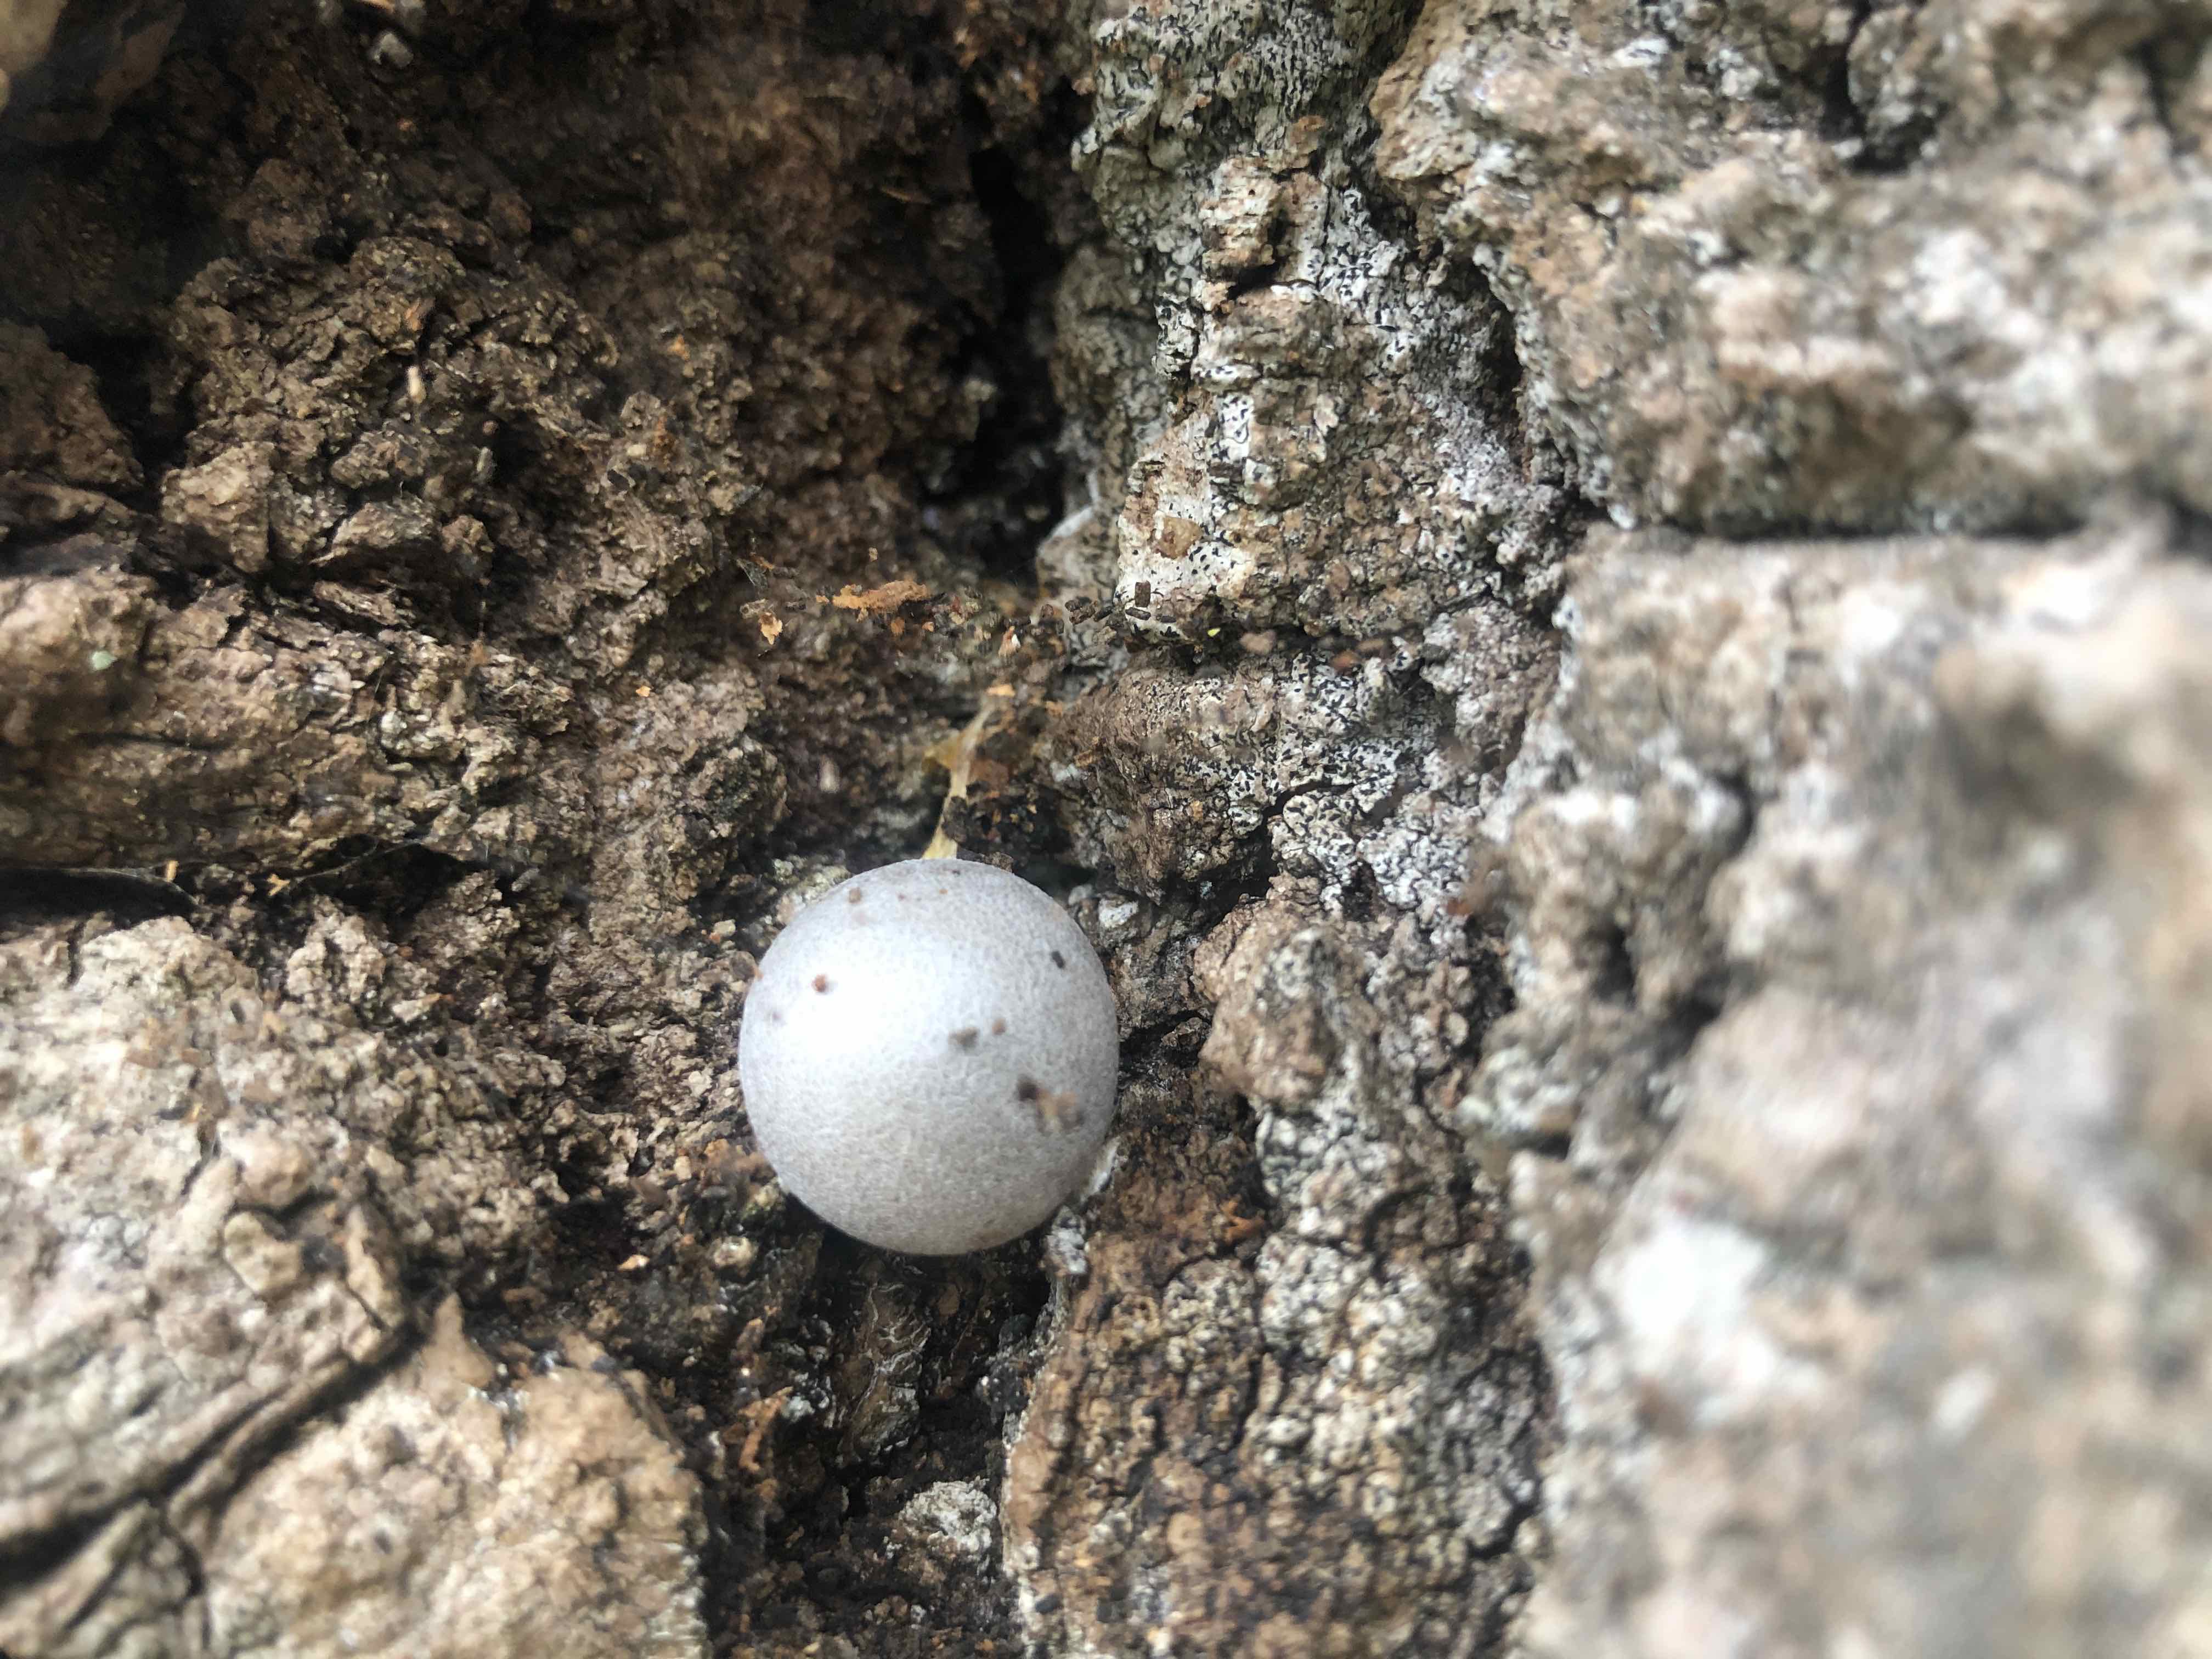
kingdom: Protozoa
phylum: Mycetozoa
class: Myxomycetes
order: Cribrariales
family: Tubiferaceae
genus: Lycogala
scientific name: Lycogala flavofuscum
